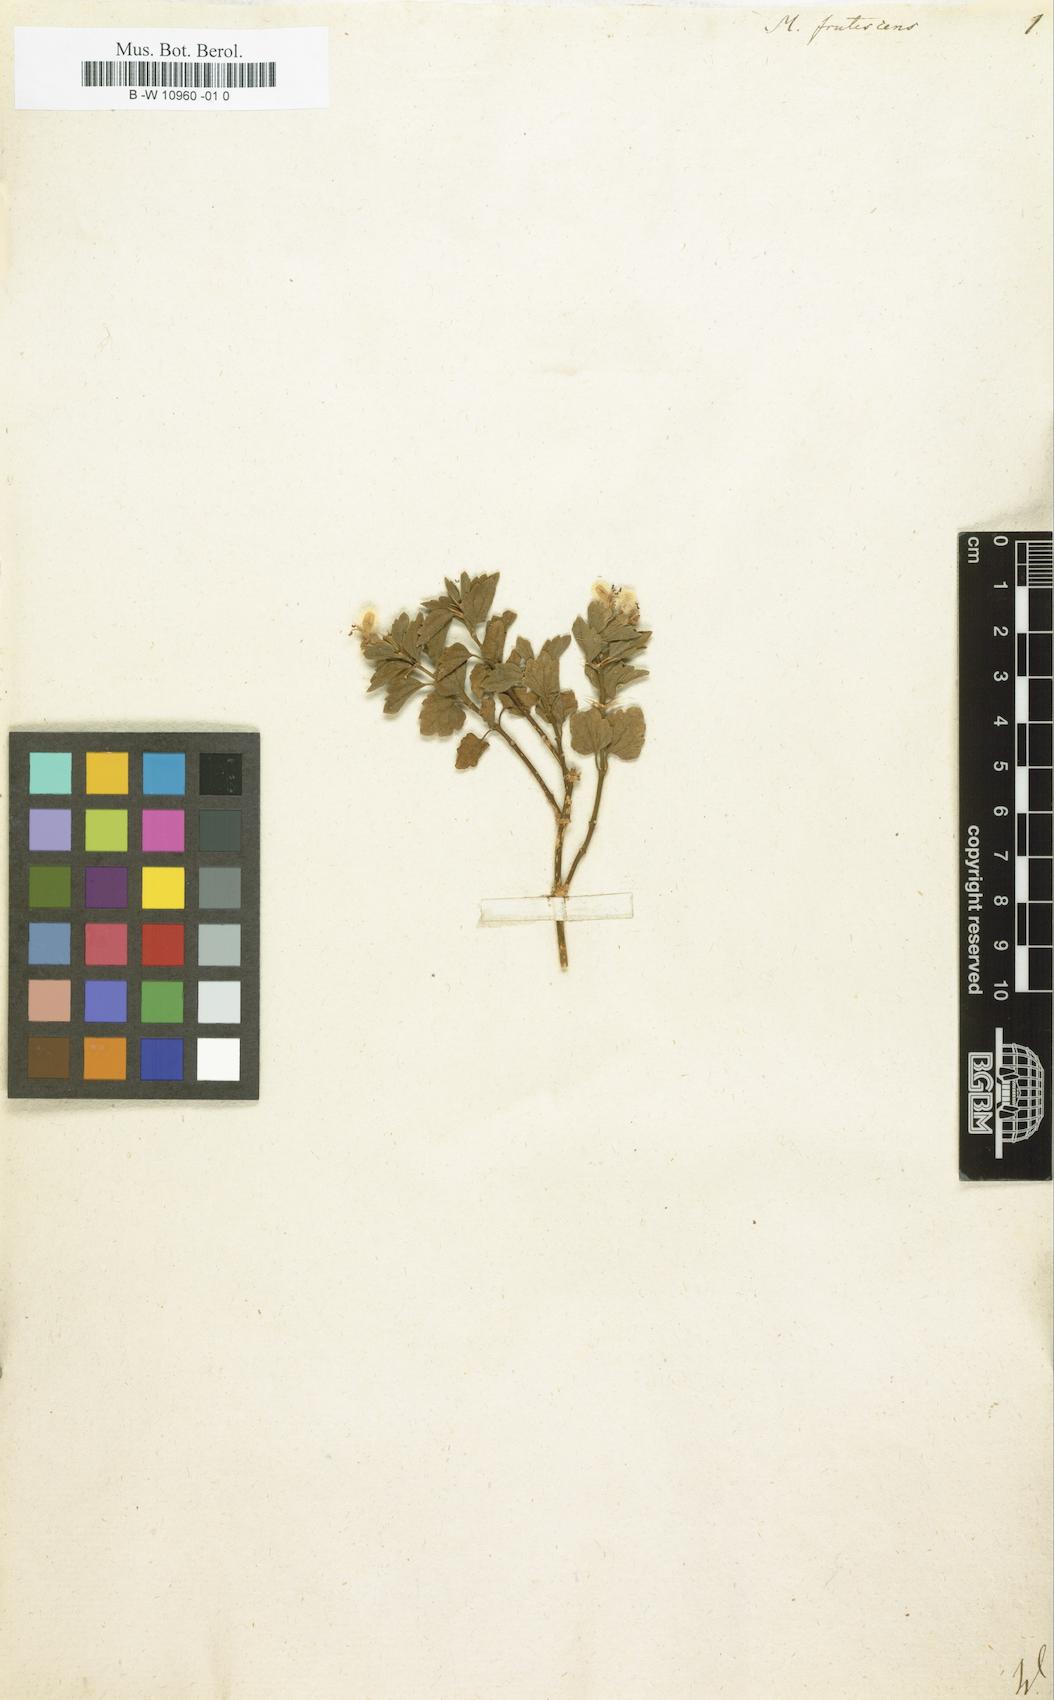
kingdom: Plantae
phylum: Tracheophyta
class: Magnoliopsida
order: Lamiales
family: Lamiaceae
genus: Moluccella
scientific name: Moluccella frutescens
